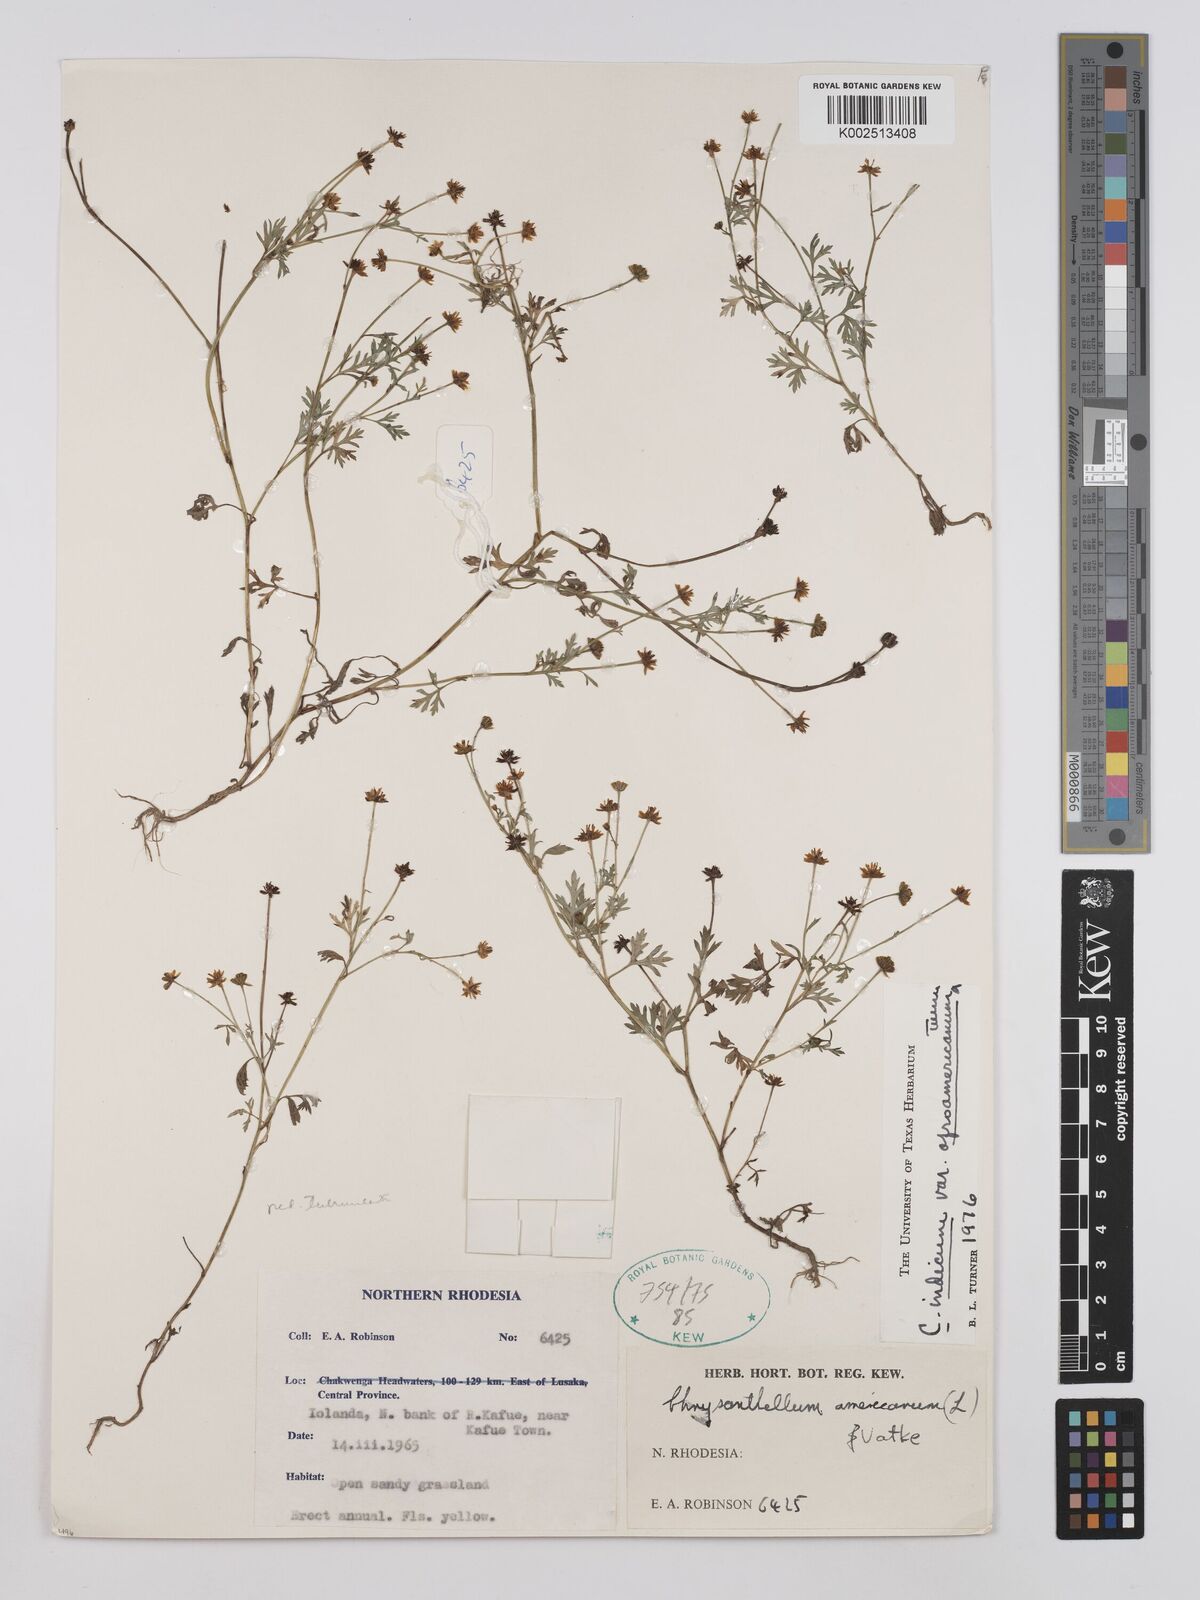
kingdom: Plantae
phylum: Tracheophyta
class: Magnoliopsida
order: Asterales
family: Asteraceae
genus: Chrysanthellum
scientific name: Chrysanthellum indicum
